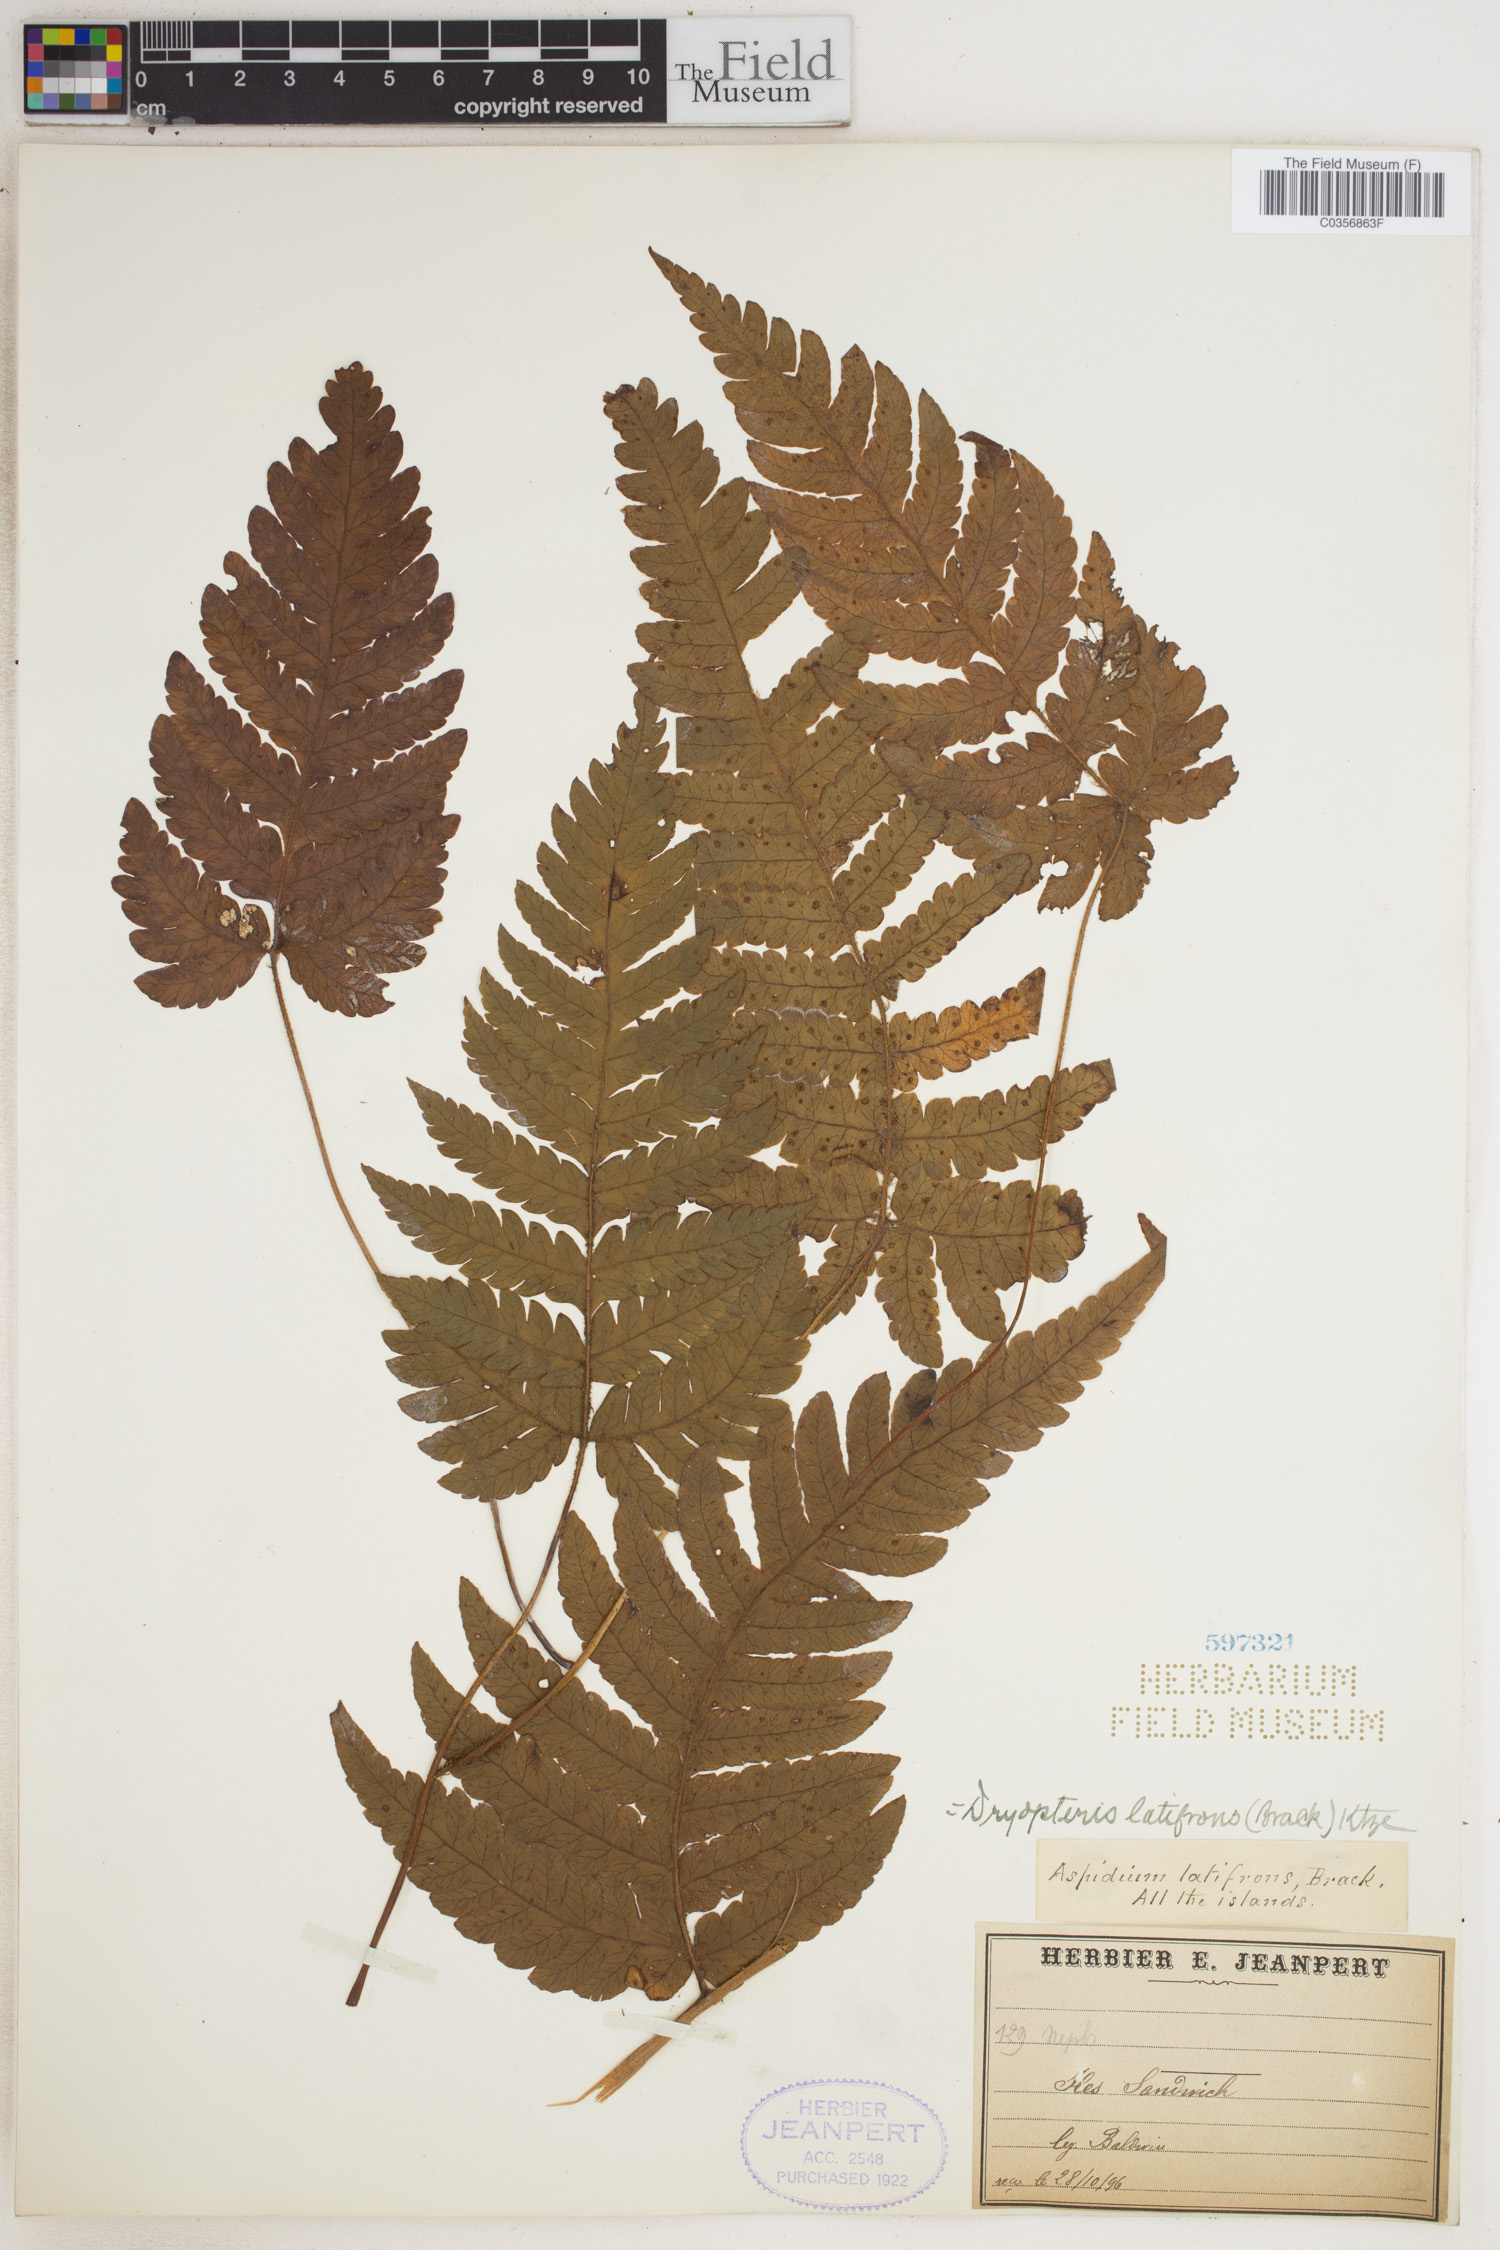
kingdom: Plantae
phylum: Tracheophyta
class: Polypodiopsida
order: Polypodiales
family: Dryopteridaceae
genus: Ctenitis
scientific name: Ctenitis latifrons
